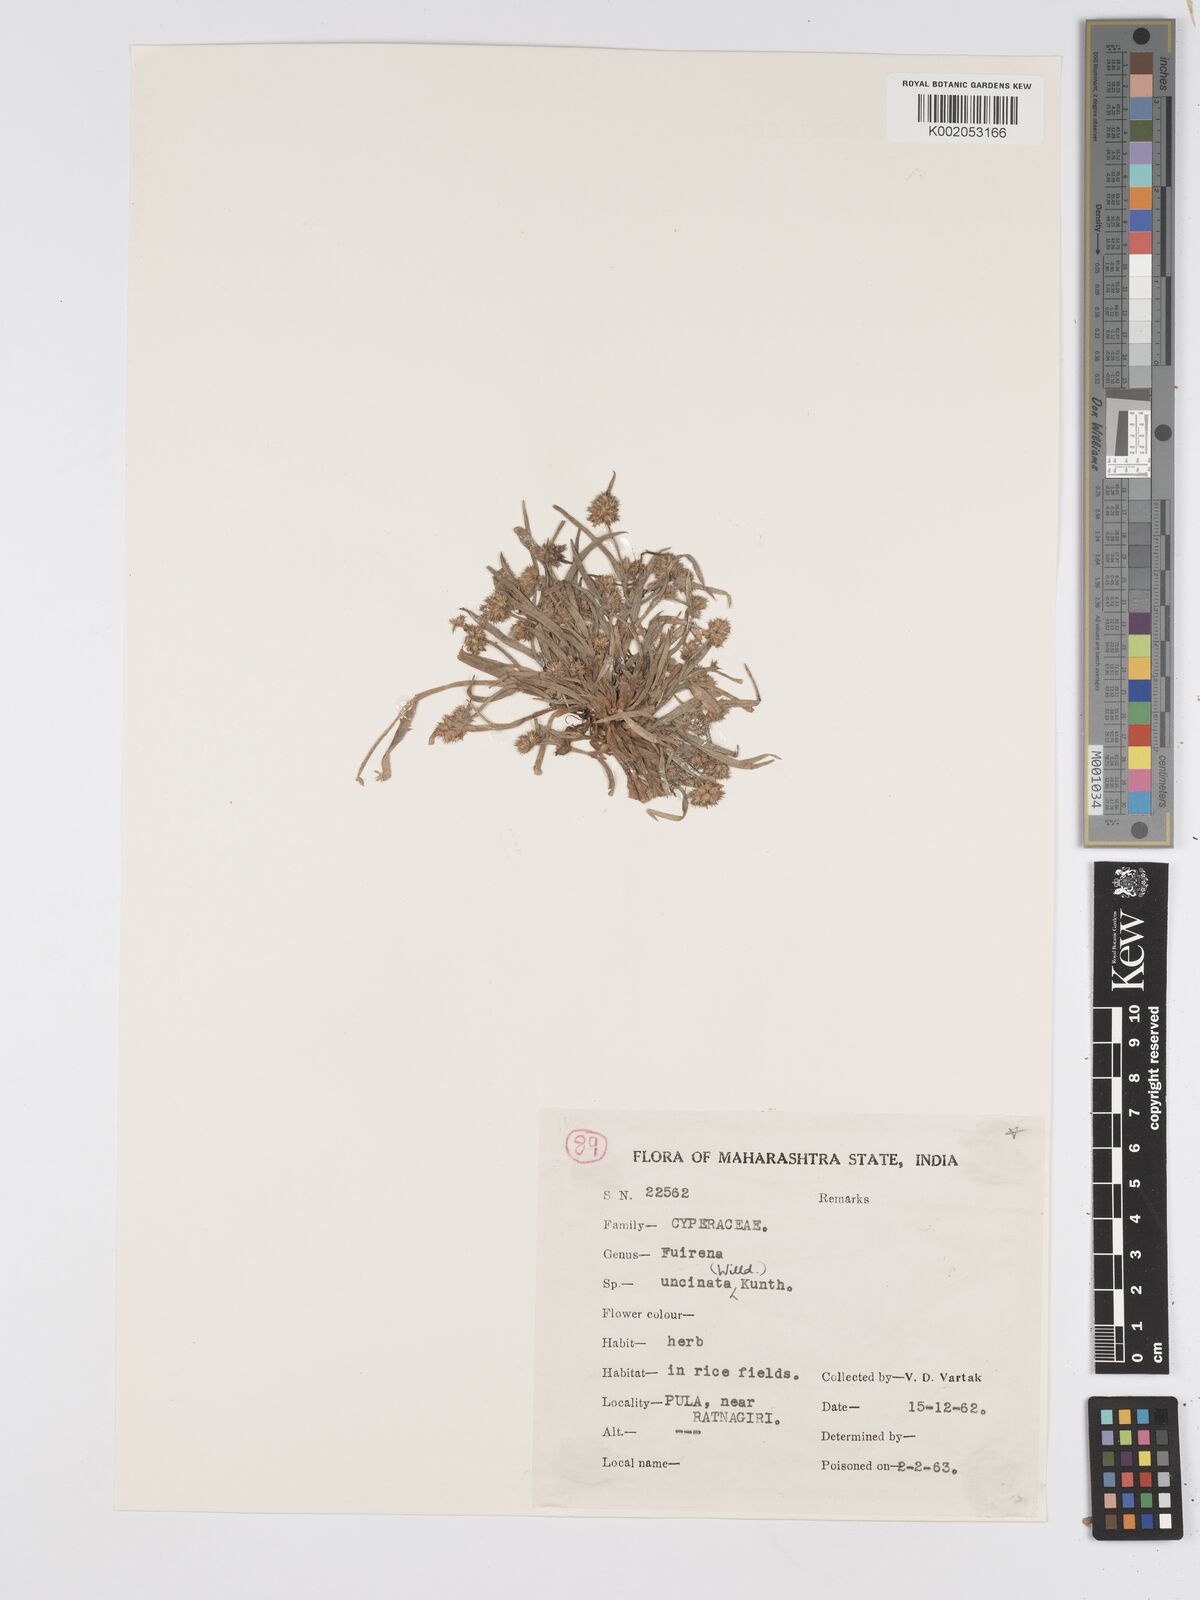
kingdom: Plantae
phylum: Tracheophyta
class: Liliopsida
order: Poales
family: Cyperaceae
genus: Fuirena
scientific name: Fuirena uncinata
